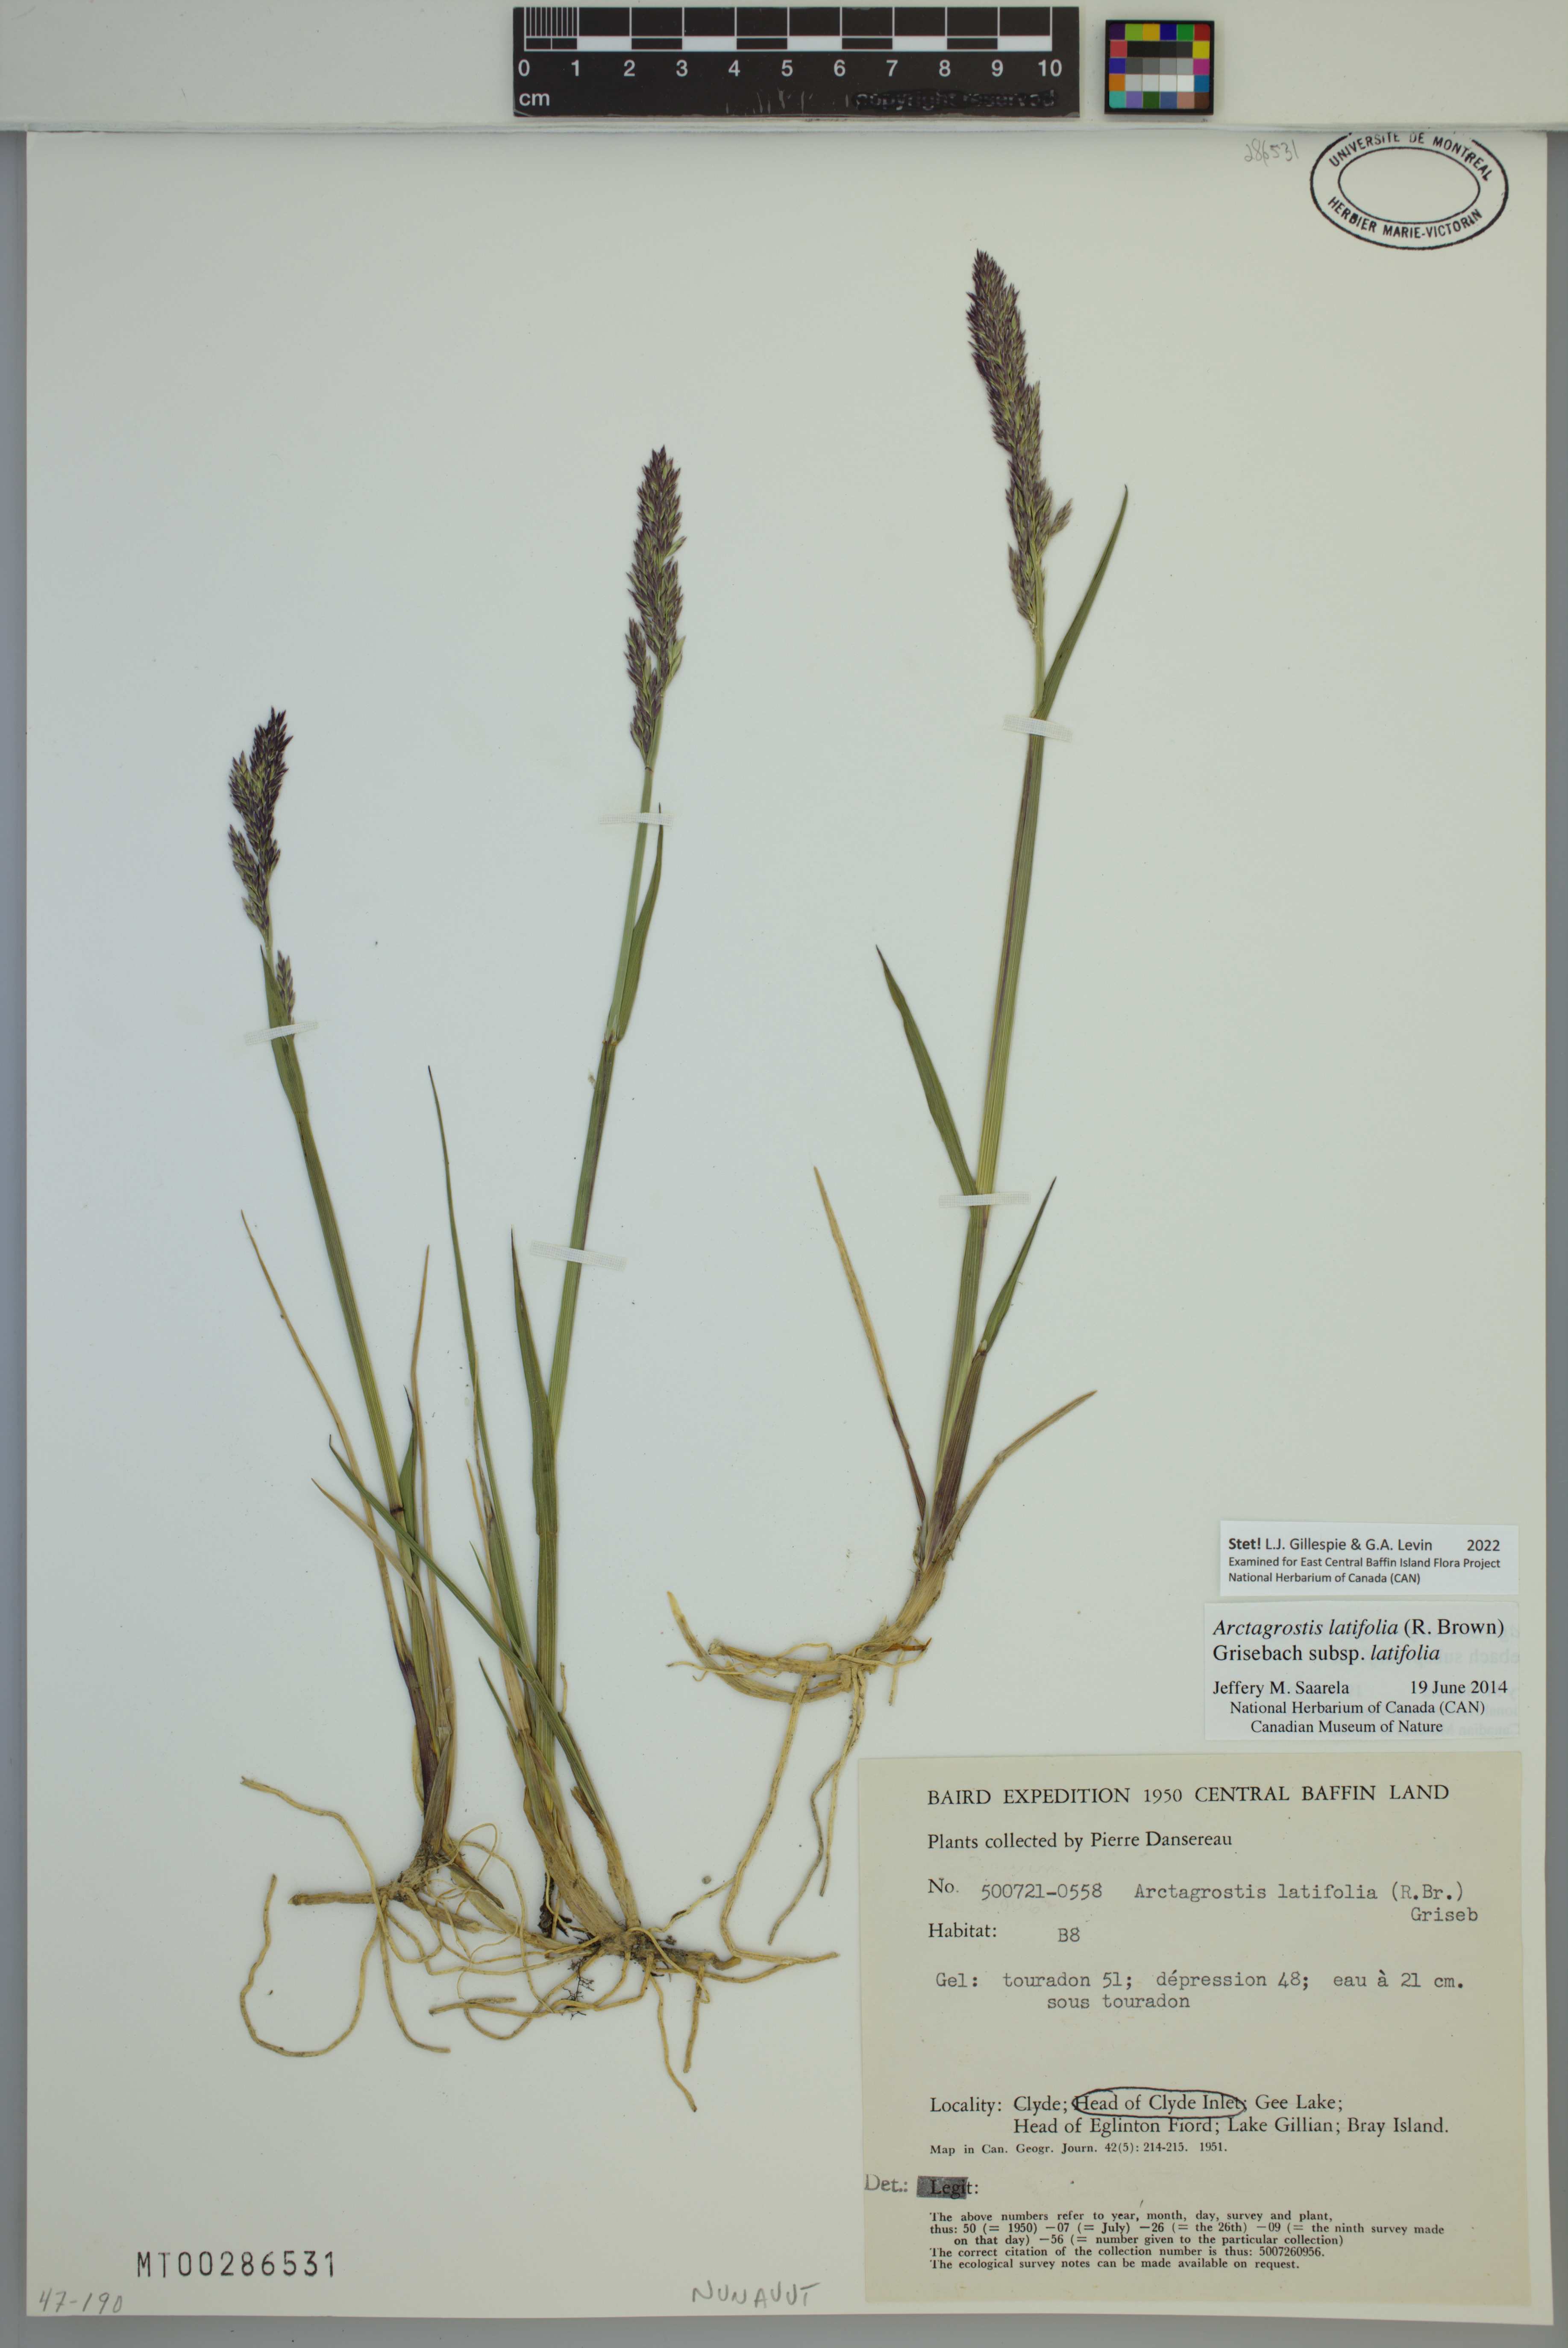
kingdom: Plantae
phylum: Tracheophyta
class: Liliopsida
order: Poales
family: Poaceae
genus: Arctagrostis
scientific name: Arctagrostis latifolia
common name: Arctic grass
